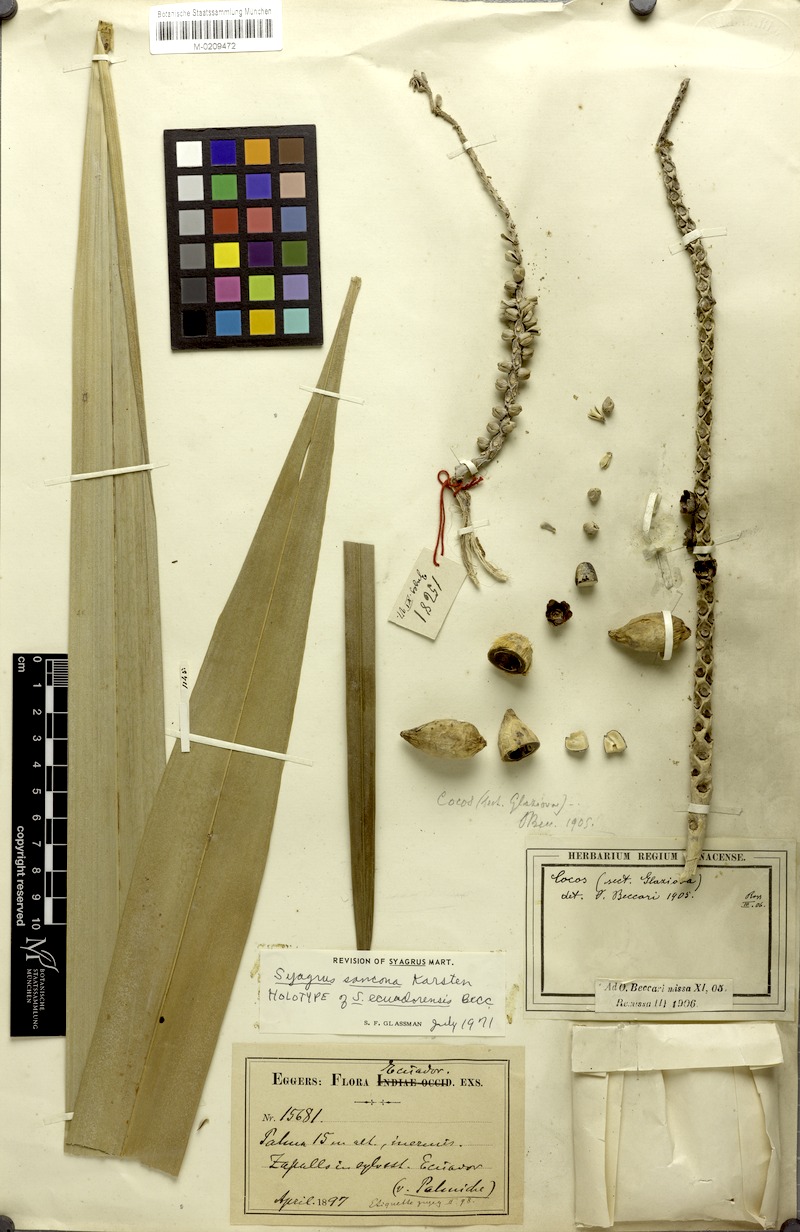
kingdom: Plantae
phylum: Tracheophyta
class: Liliopsida
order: Arecales
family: Arecaceae
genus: Syagrus
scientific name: Syagrus sancona
